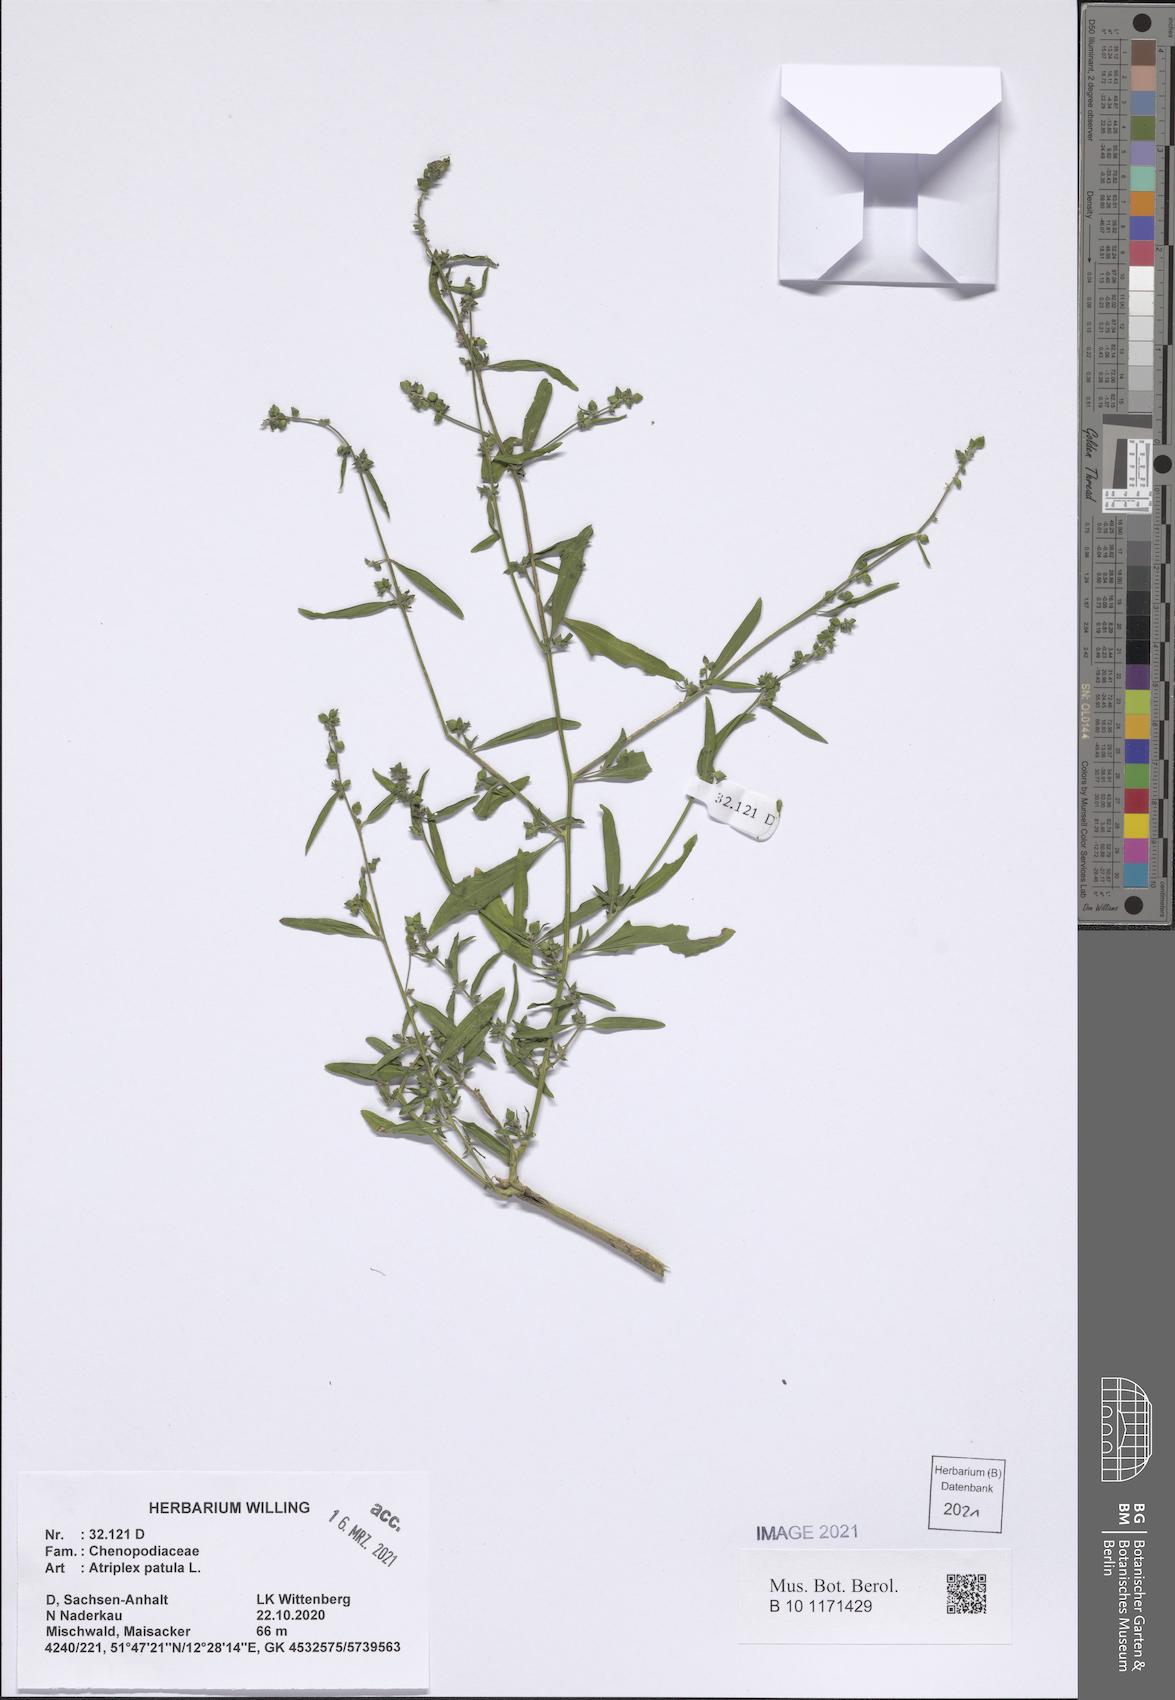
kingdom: Plantae
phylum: Tracheophyta
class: Magnoliopsida
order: Caryophyllales
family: Amaranthaceae
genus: Atriplex
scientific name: Atriplex patula
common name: Common orache
